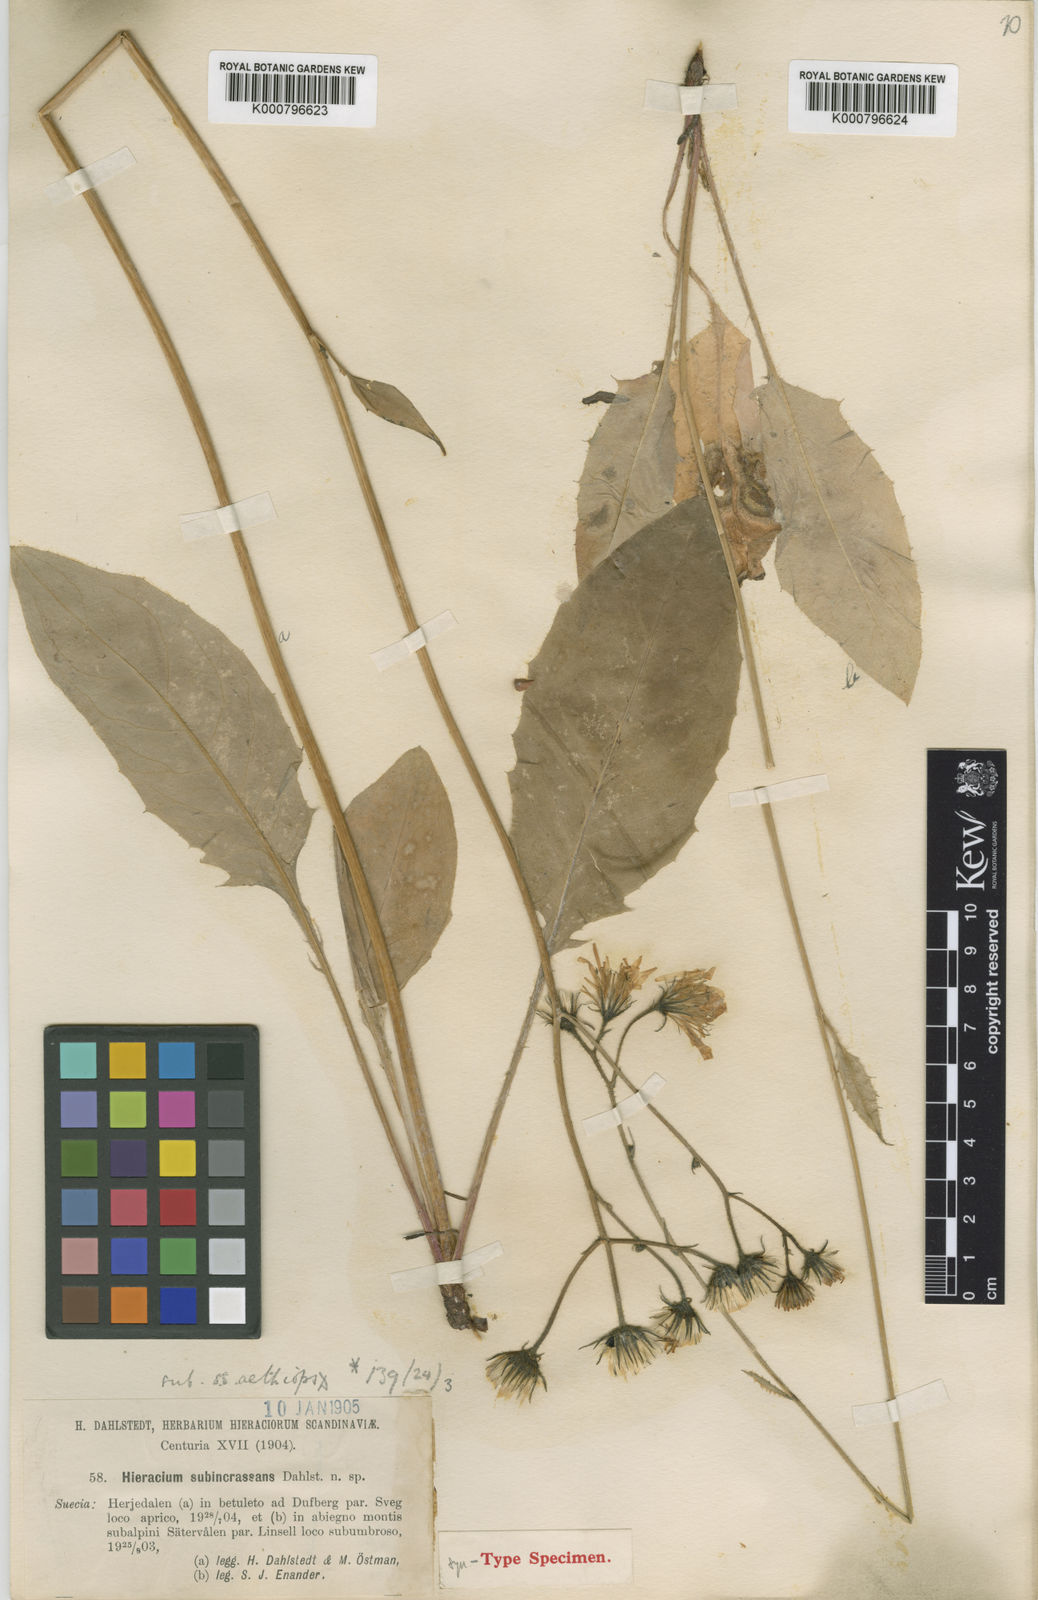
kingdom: Plantae
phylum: Tracheophyta
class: Magnoliopsida
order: Asterales
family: Asteraceae
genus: Hieracium
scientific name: Hieracium murorum
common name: Wall hawkweed
